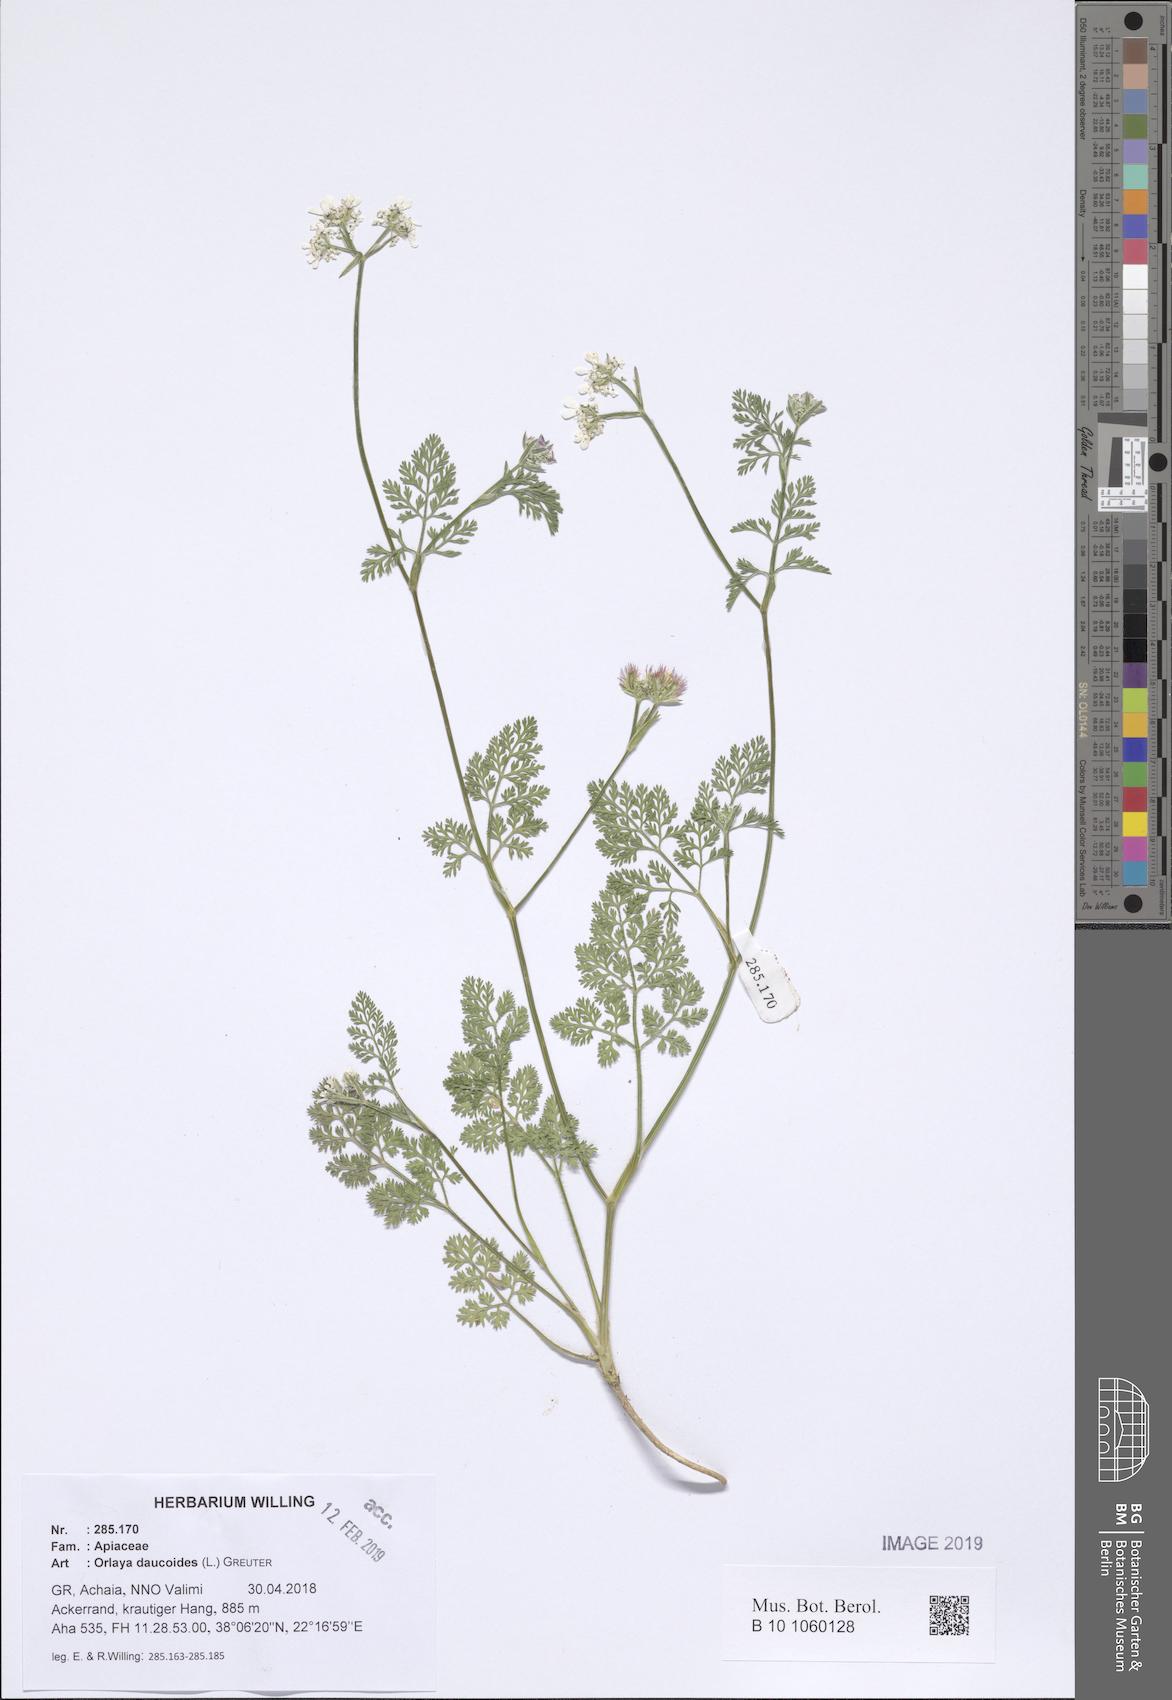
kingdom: Plantae
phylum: Tracheophyta
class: Magnoliopsida
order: Apiales
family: Apiaceae
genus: Orlaya
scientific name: Orlaya daucoides
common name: Flat-fruit orlaya
